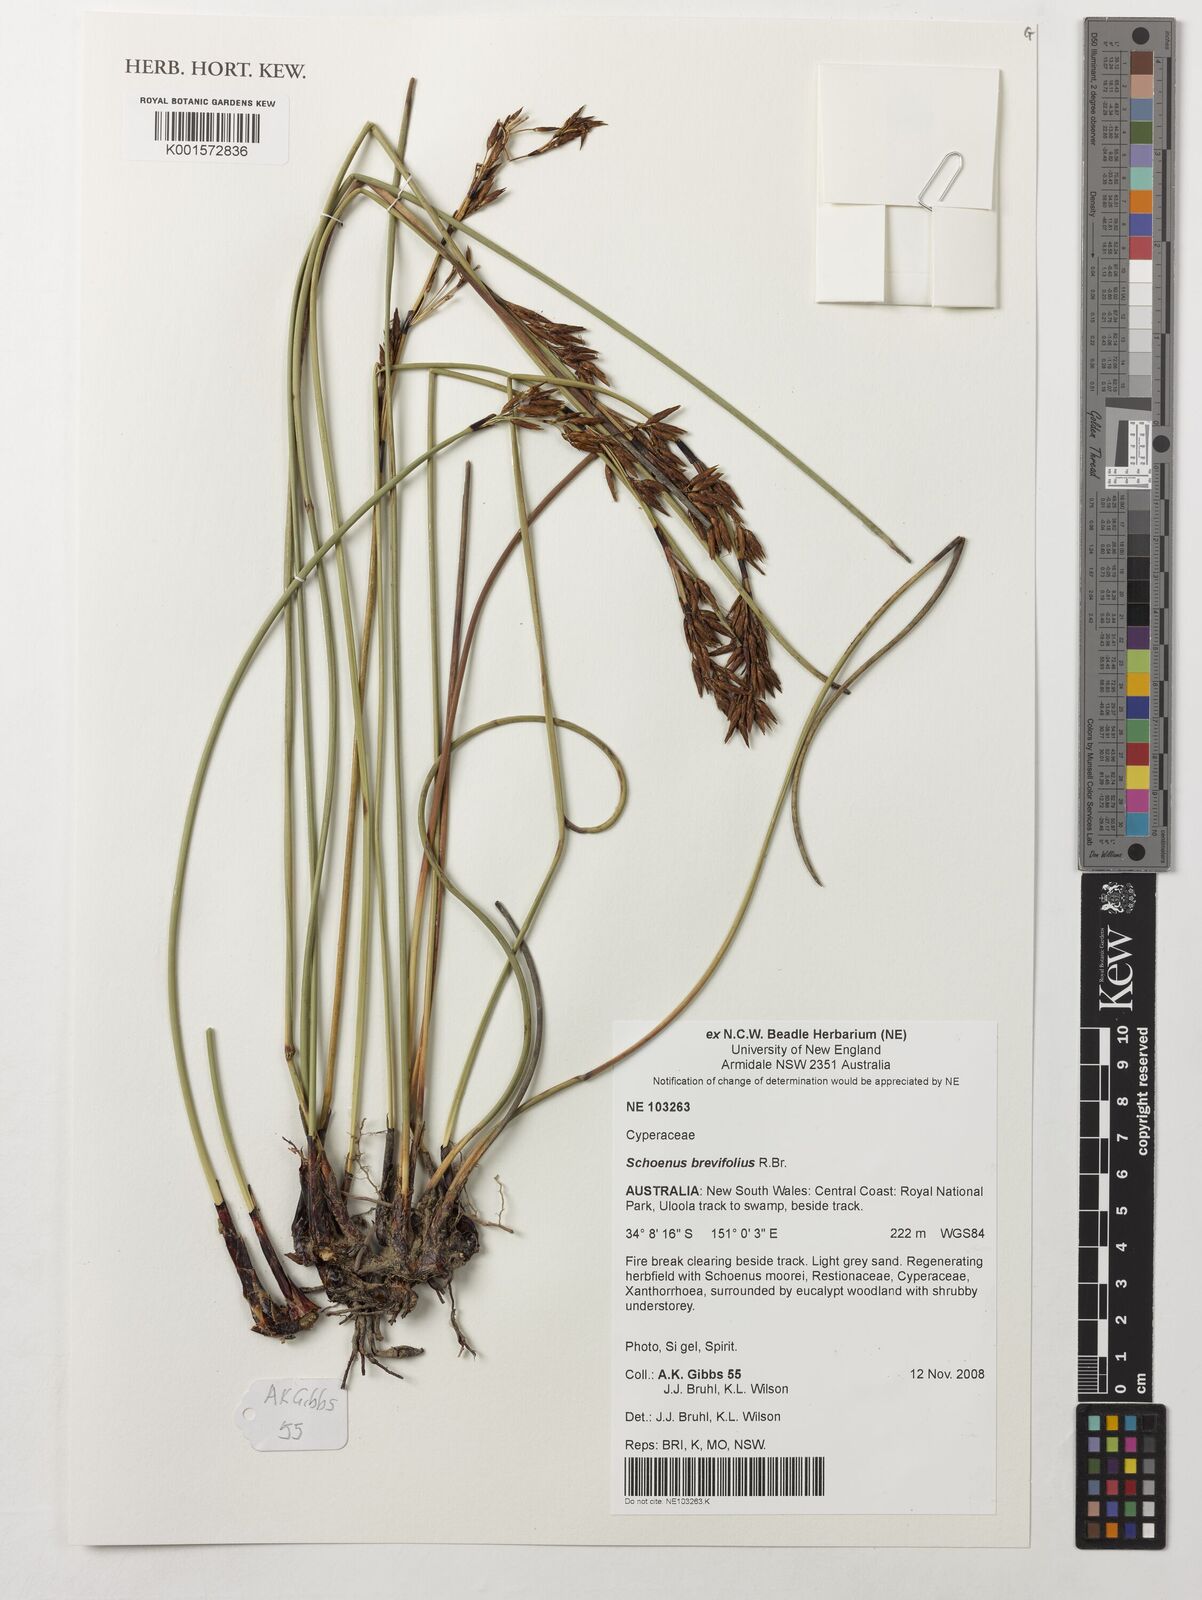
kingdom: Plantae
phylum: Tracheophyta
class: Liliopsida
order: Poales
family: Cyperaceae
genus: Schoenus
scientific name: Schoenus brevifolius
